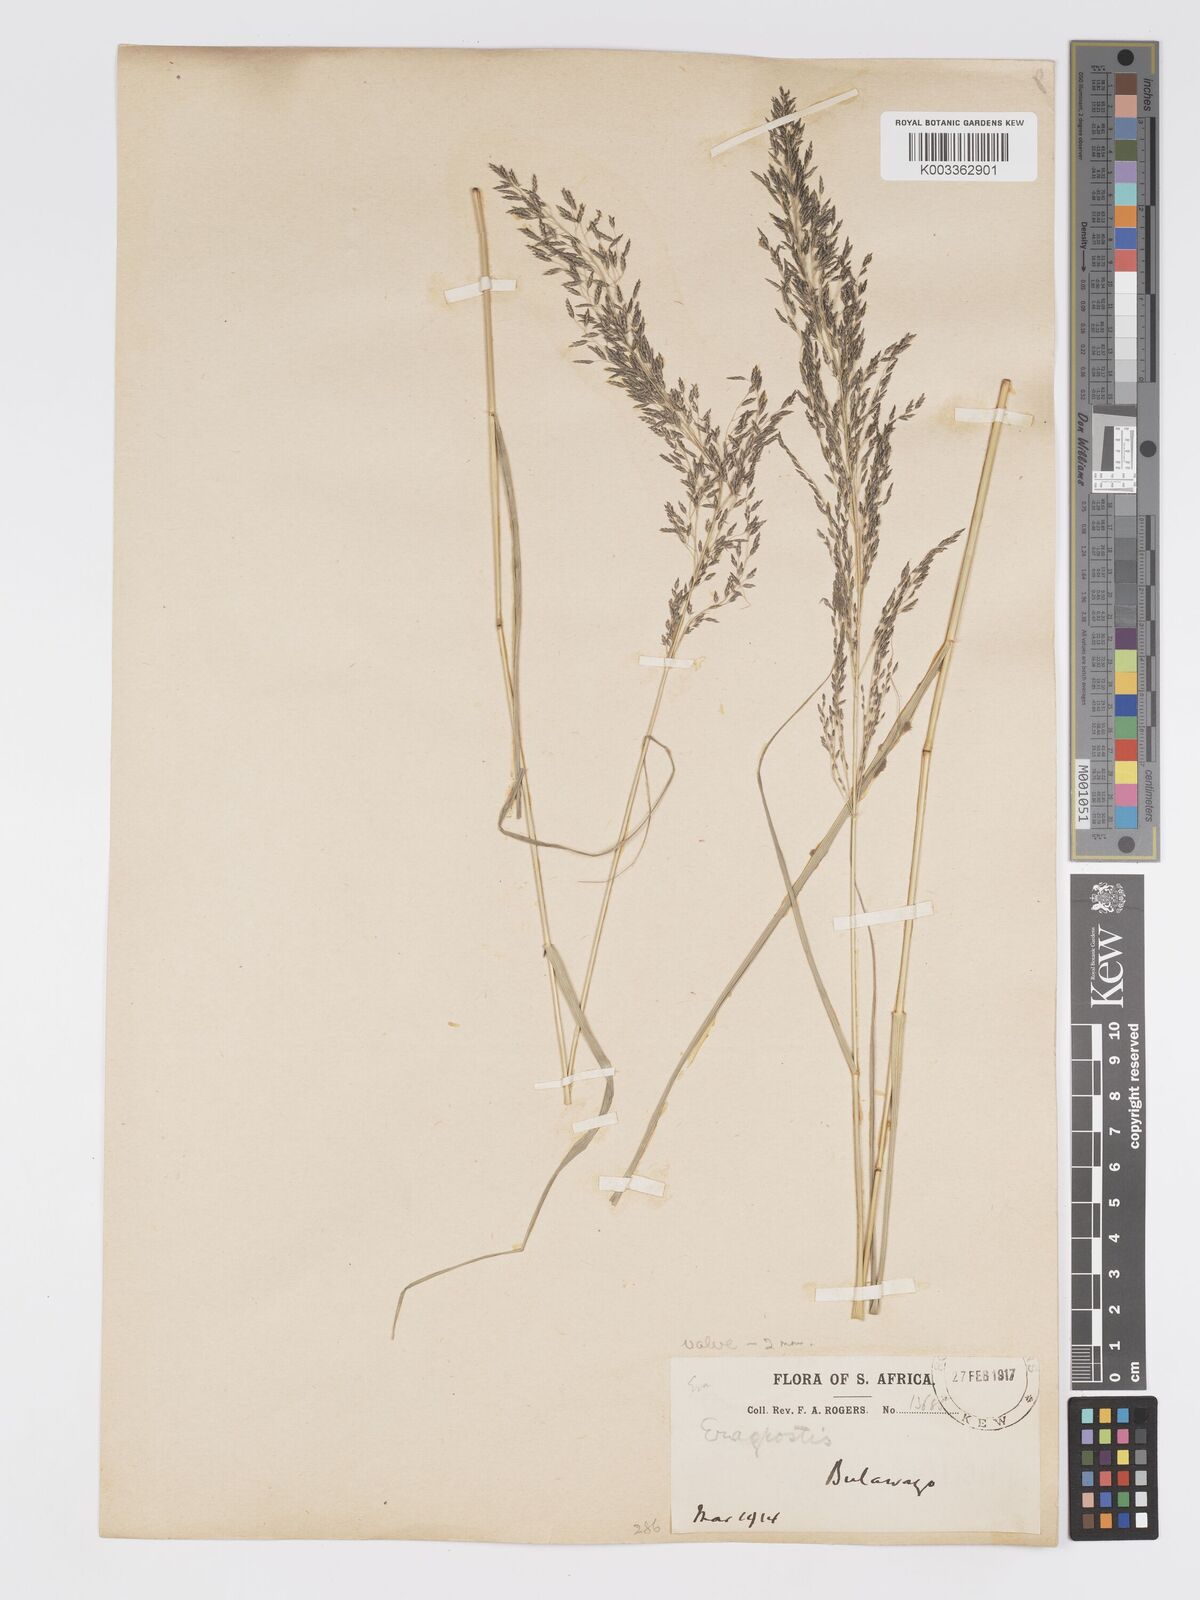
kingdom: Plantae
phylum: Tracheophyta
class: Liliopsida
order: Poales
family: Poaceae
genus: Eragrostis
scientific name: Eragrostis cylindriflora
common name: Cylinderflower lovegrass
